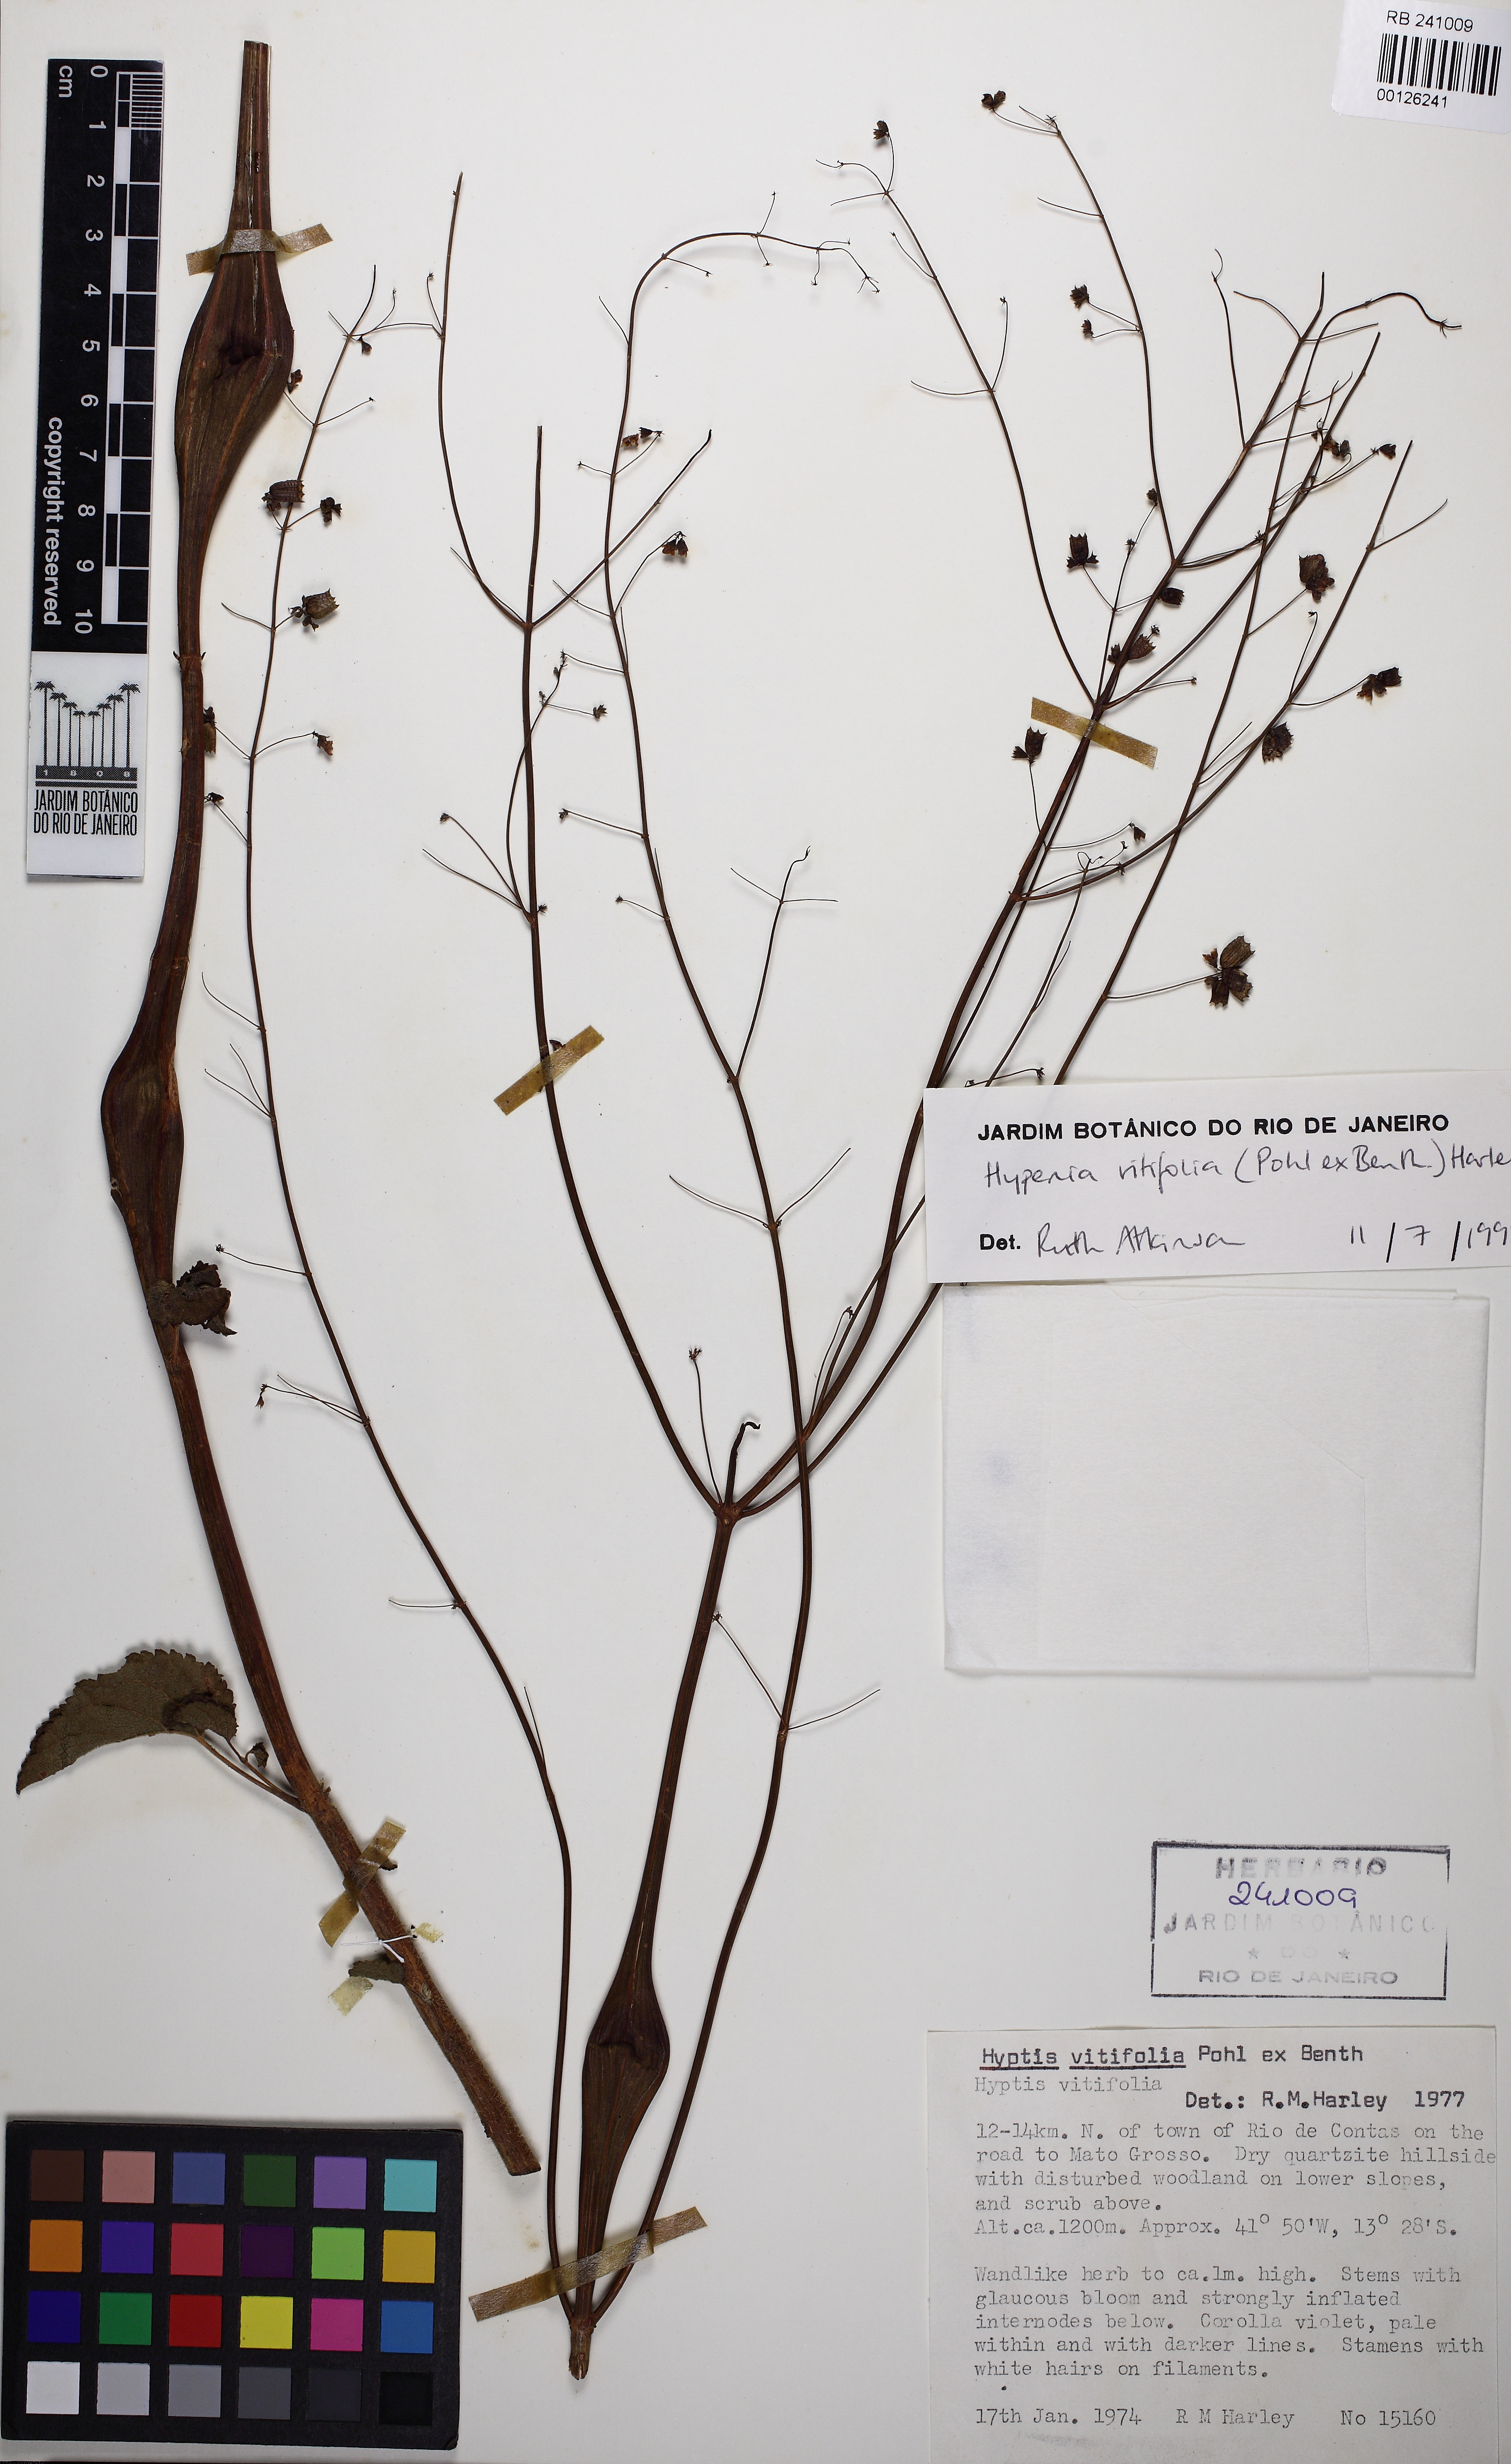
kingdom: Plantae
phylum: Tracheophyta
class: Magnoliopsida
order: Lamiales
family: Lamiaceae
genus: Physominthe
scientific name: Physominthe vitifolia
